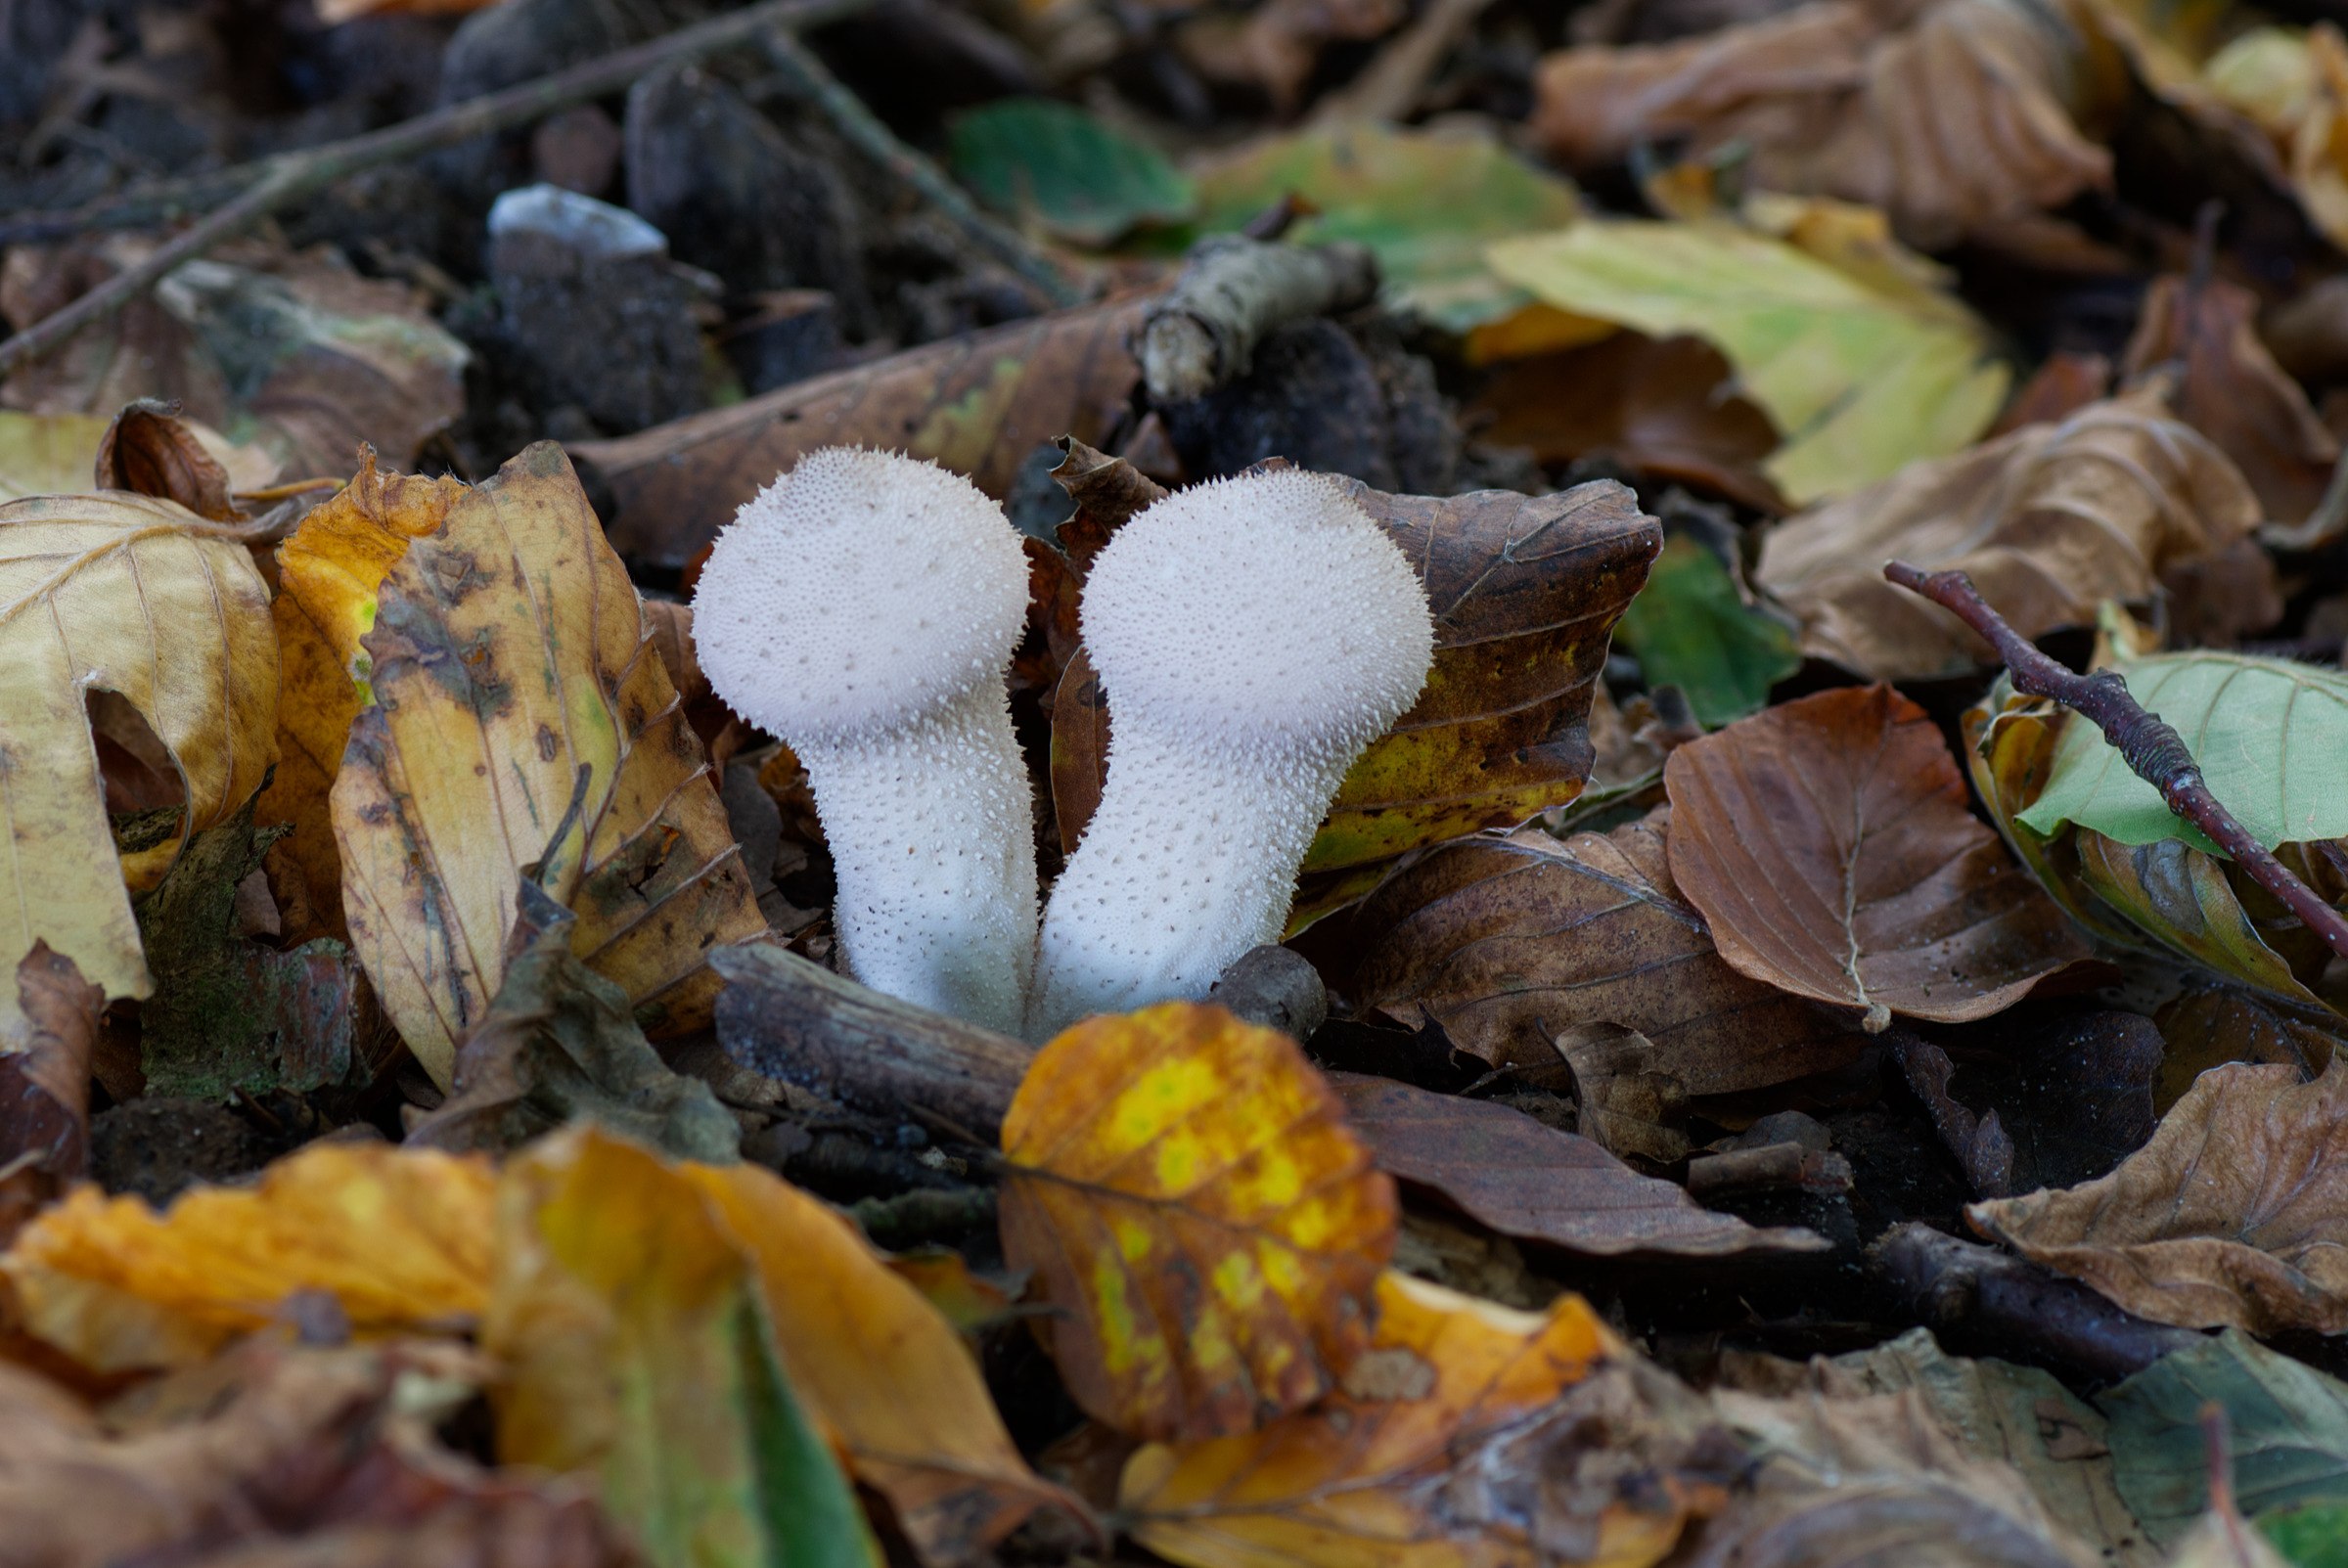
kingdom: Fungi
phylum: Basidiomycota
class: Agaricomycetes
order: Agaricales
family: Lycoperdaceae
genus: Lycoperdon
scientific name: Lycoperdon perlatum
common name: krystal-støvbold
